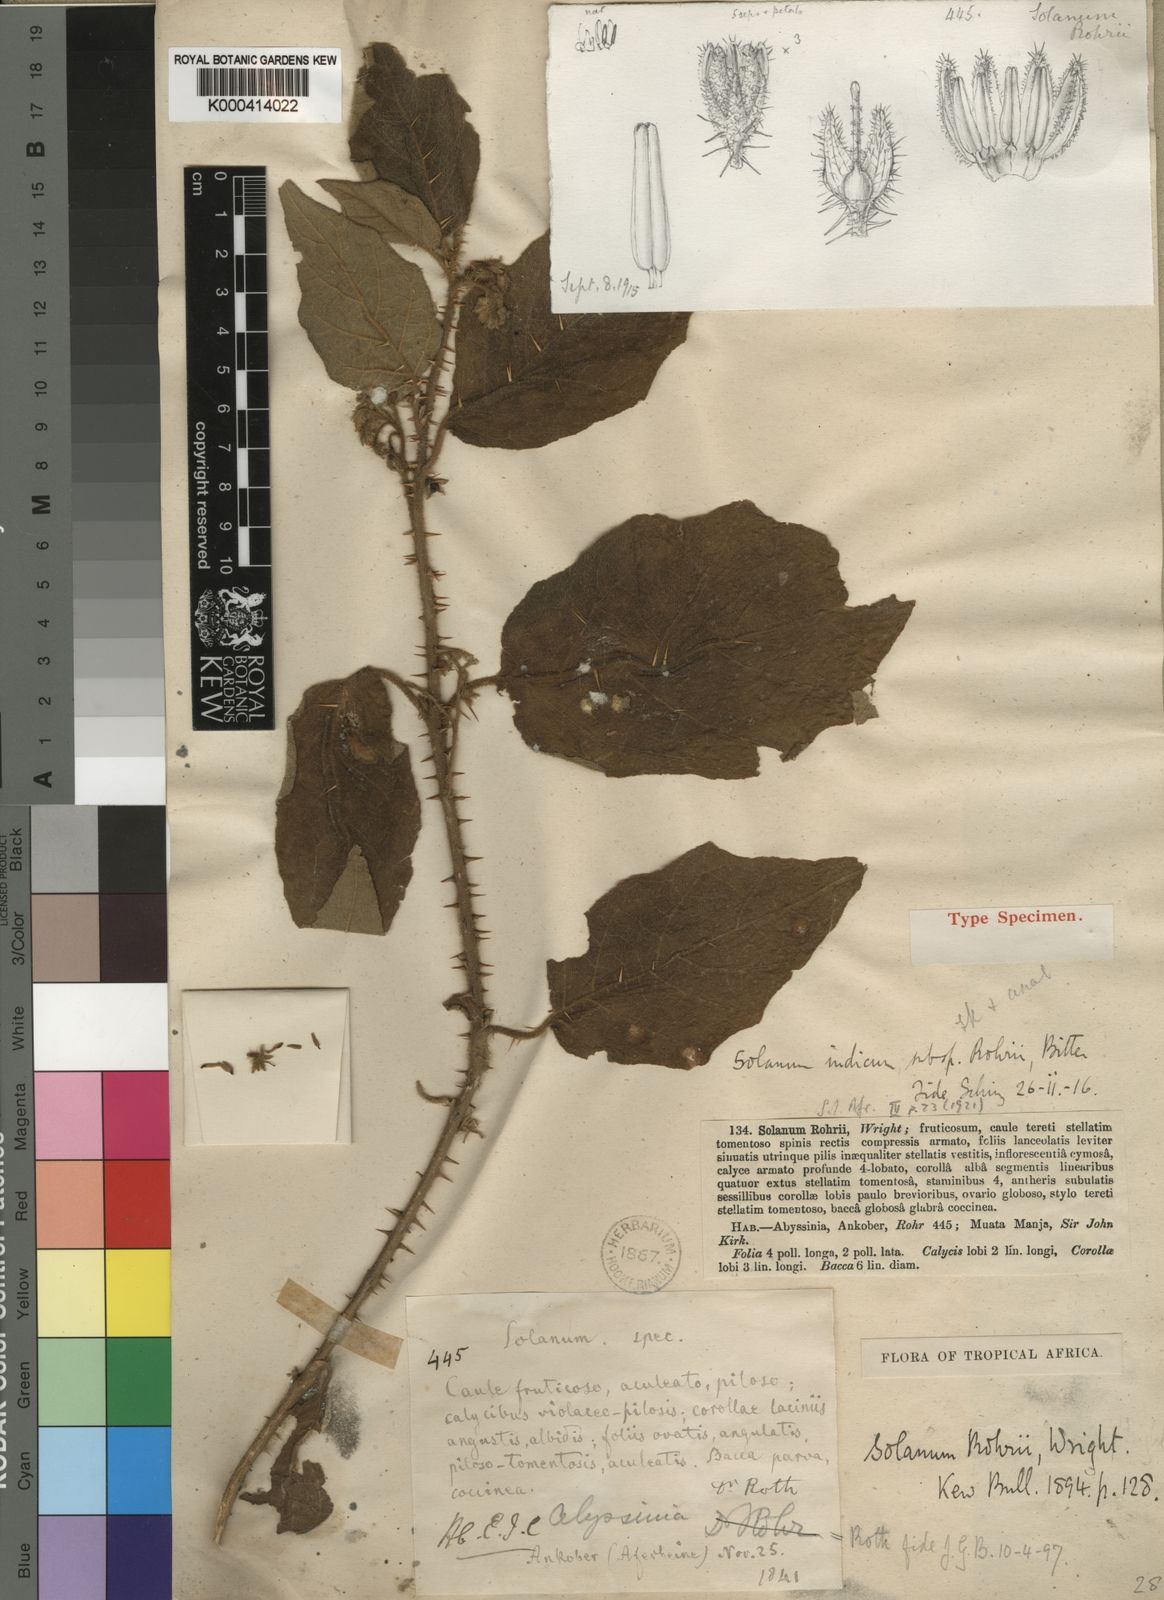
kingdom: Plantae
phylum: Tracheophyta
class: Magnoliopsida
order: Solanales
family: Solanaceae
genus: Solanum
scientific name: Solanum violaceum
